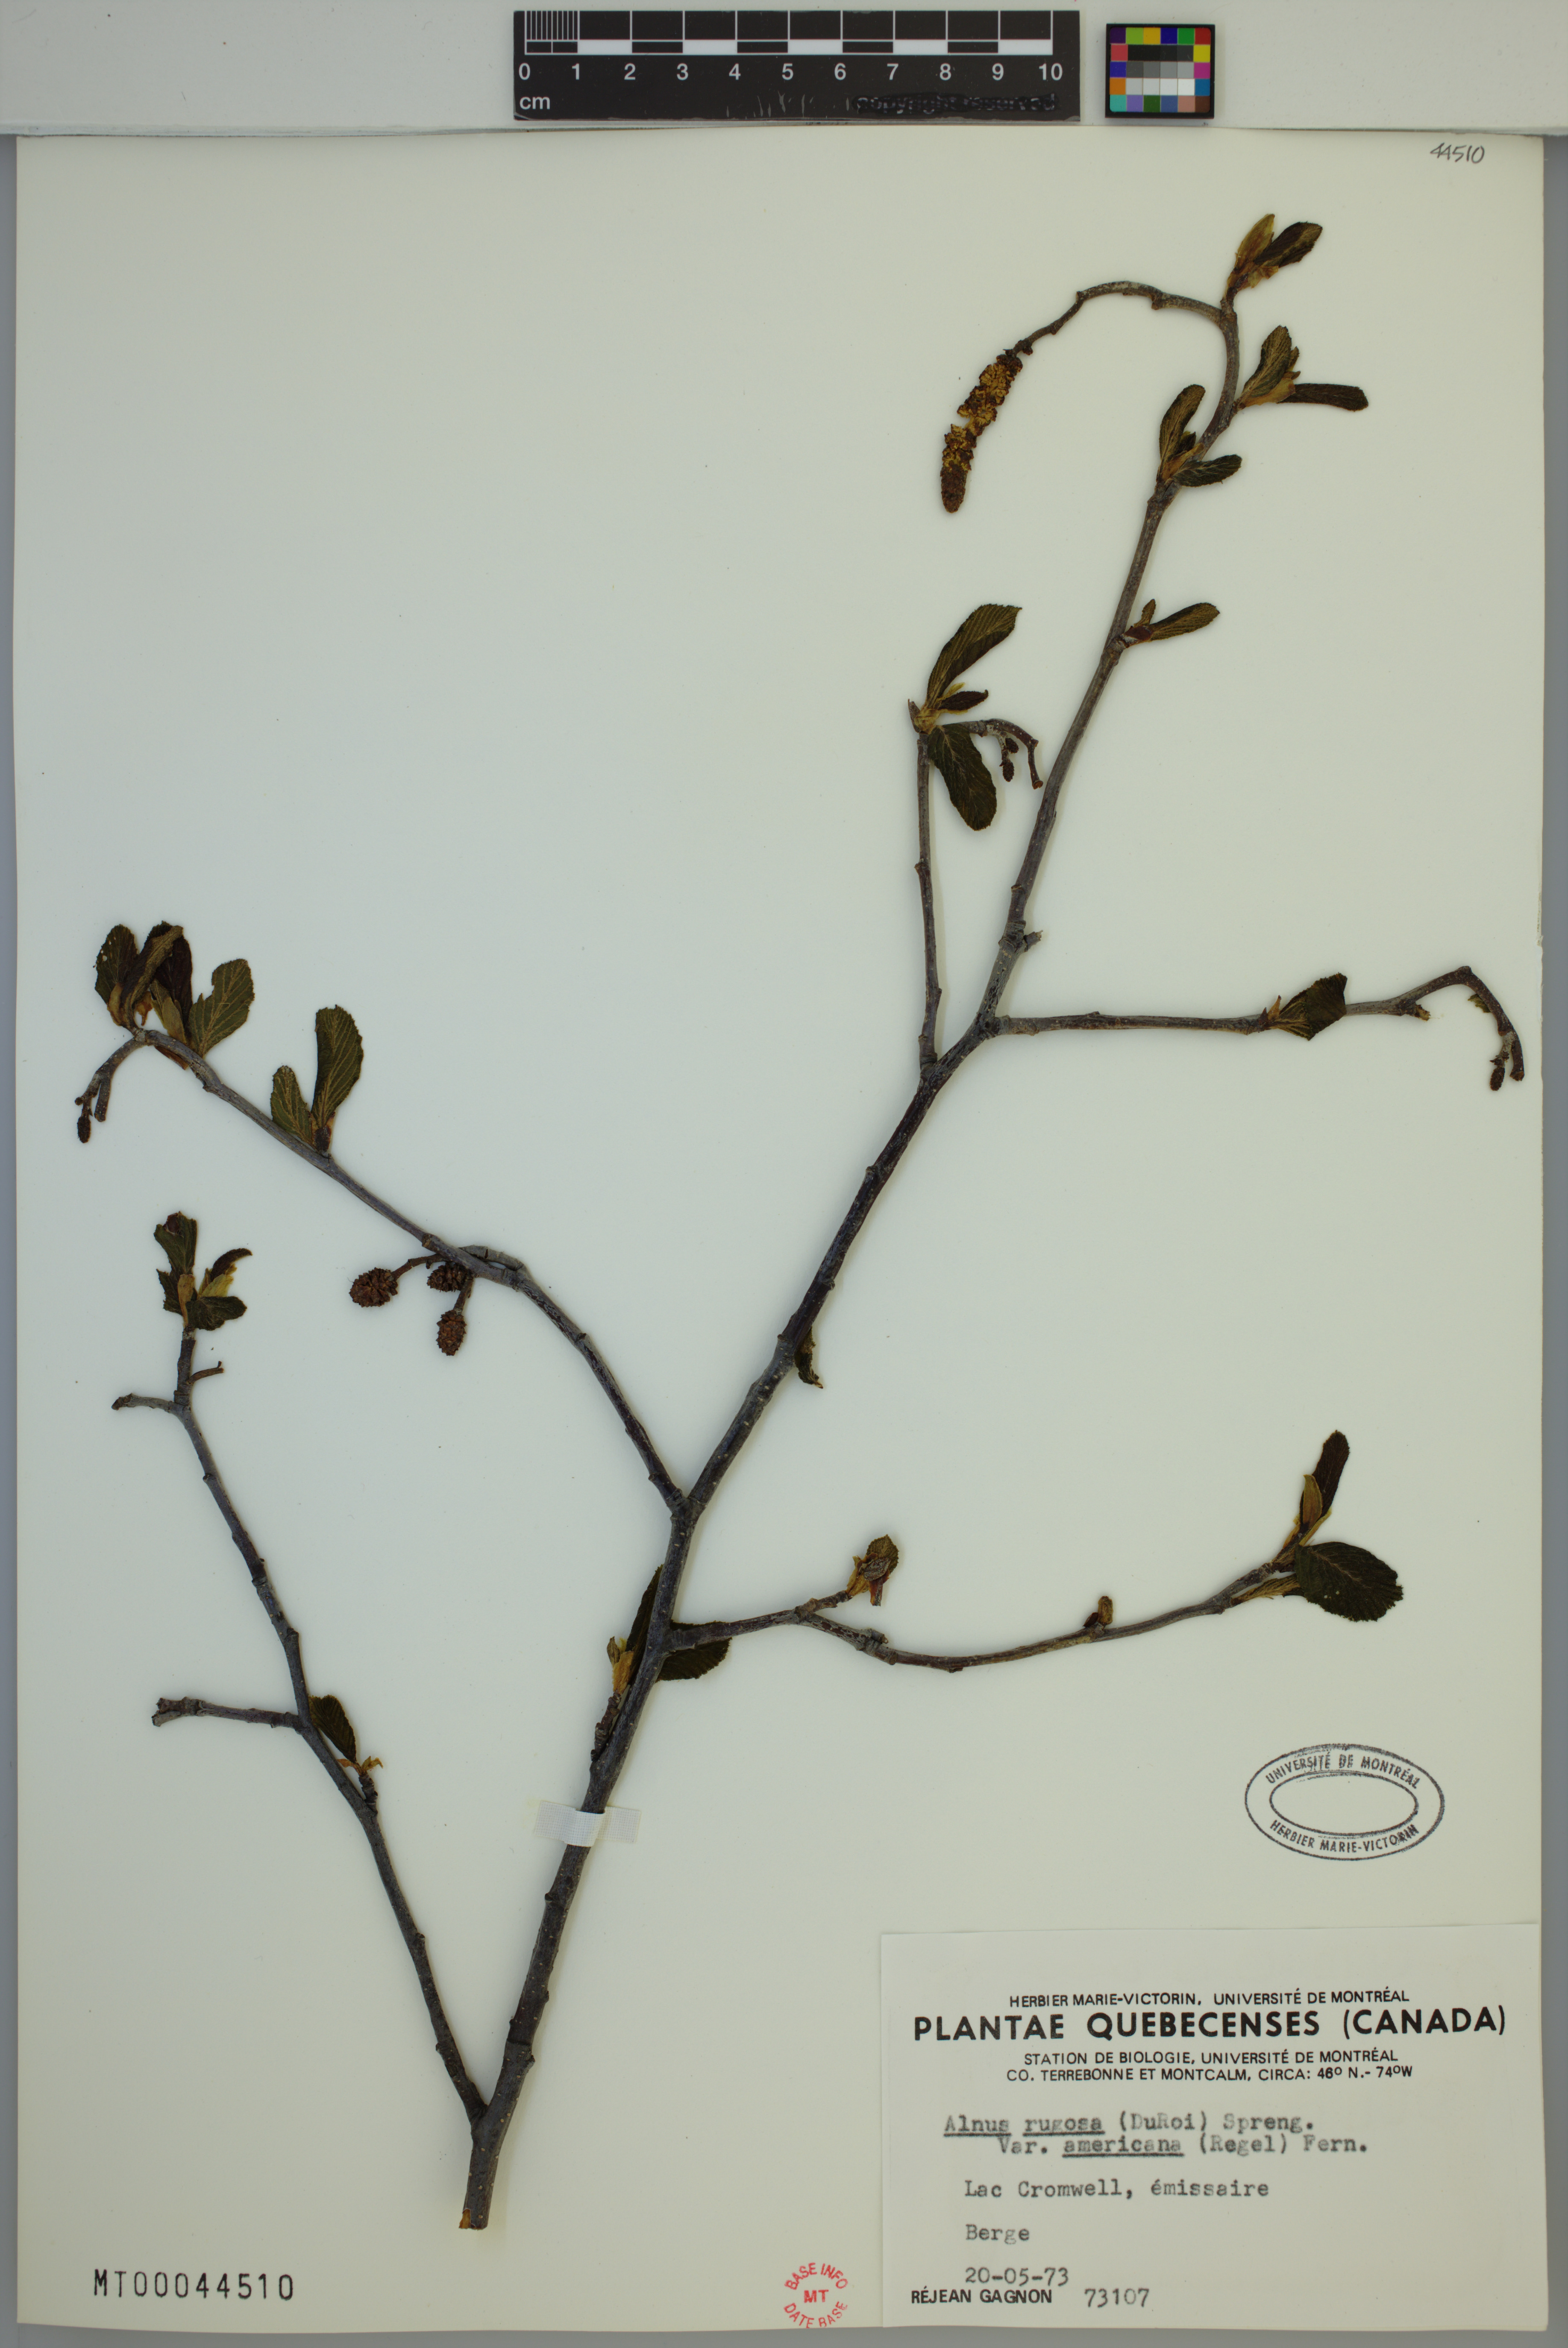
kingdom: Plantae
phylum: Tracheophyta
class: Magnoliopsida
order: Fagales
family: Betulaceae
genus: Alnus
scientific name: Alnus incana
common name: Grey alder
